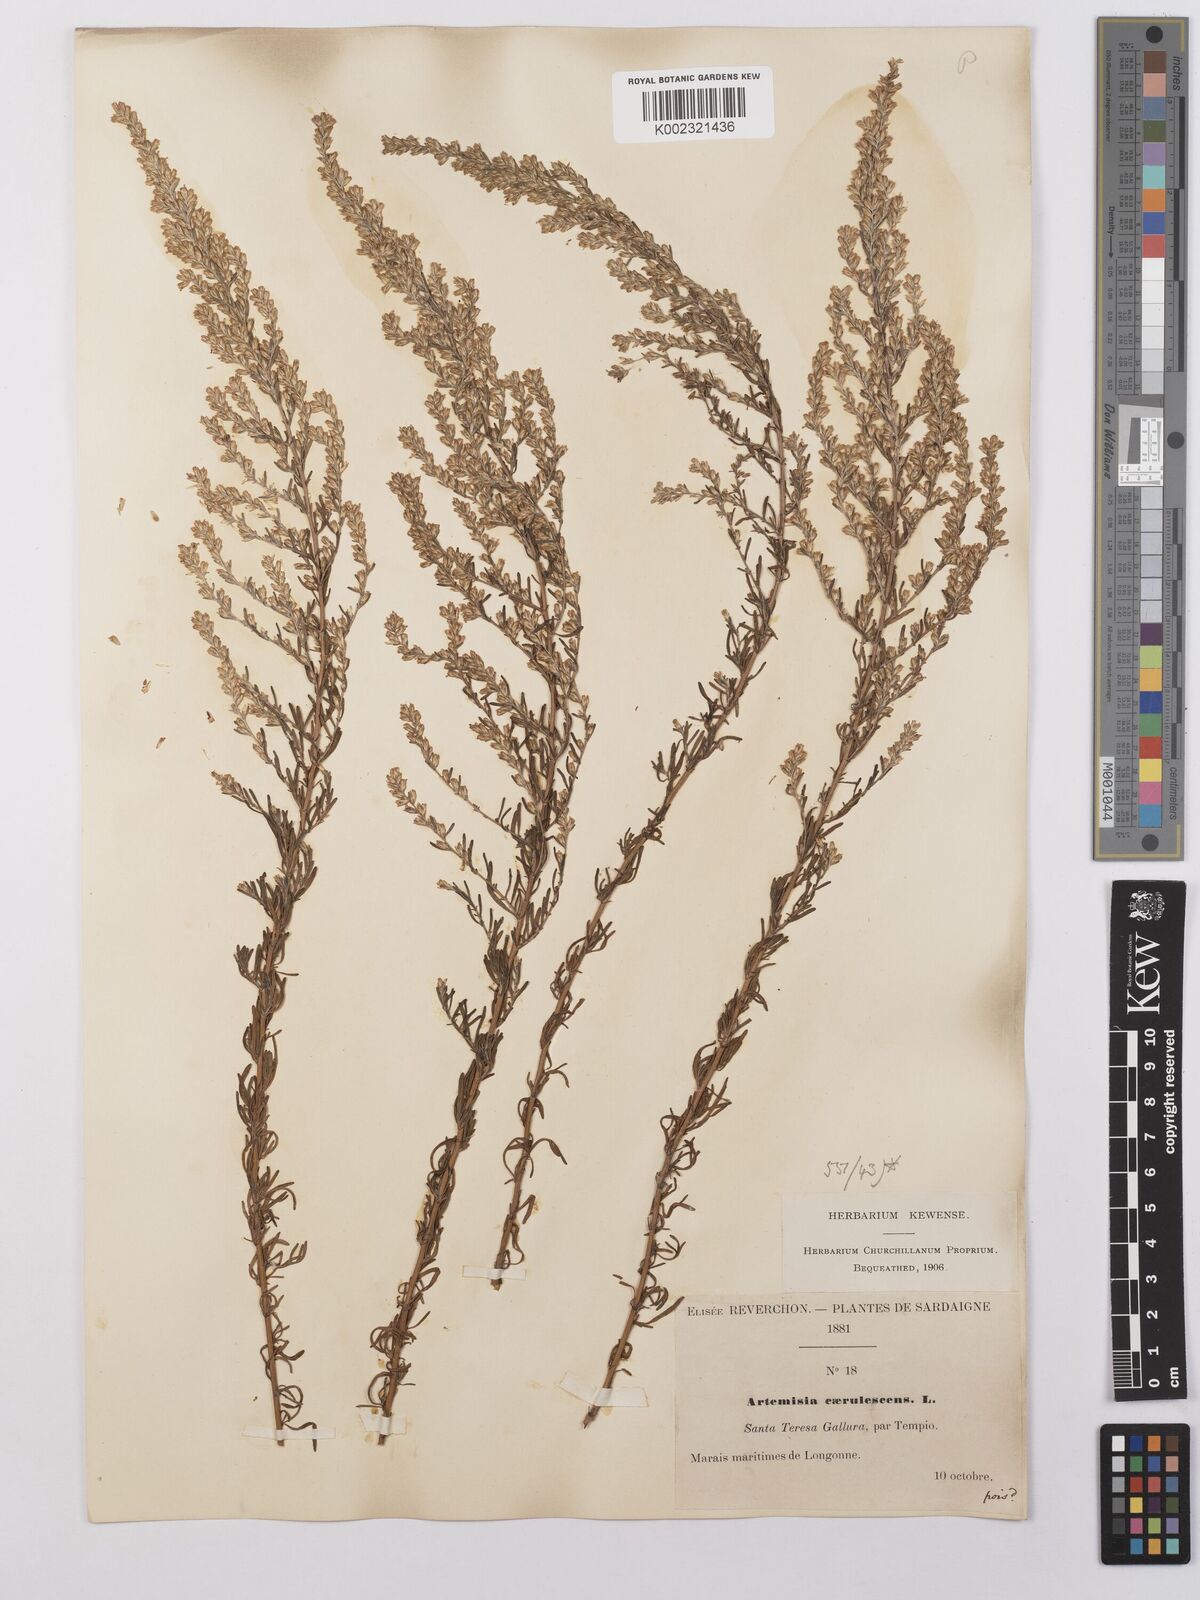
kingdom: Plantae
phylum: Tracheophyta
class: Magnoliopsida
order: Asterales
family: Asteraceae
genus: Artemisia
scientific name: Artemisia caerulescens
